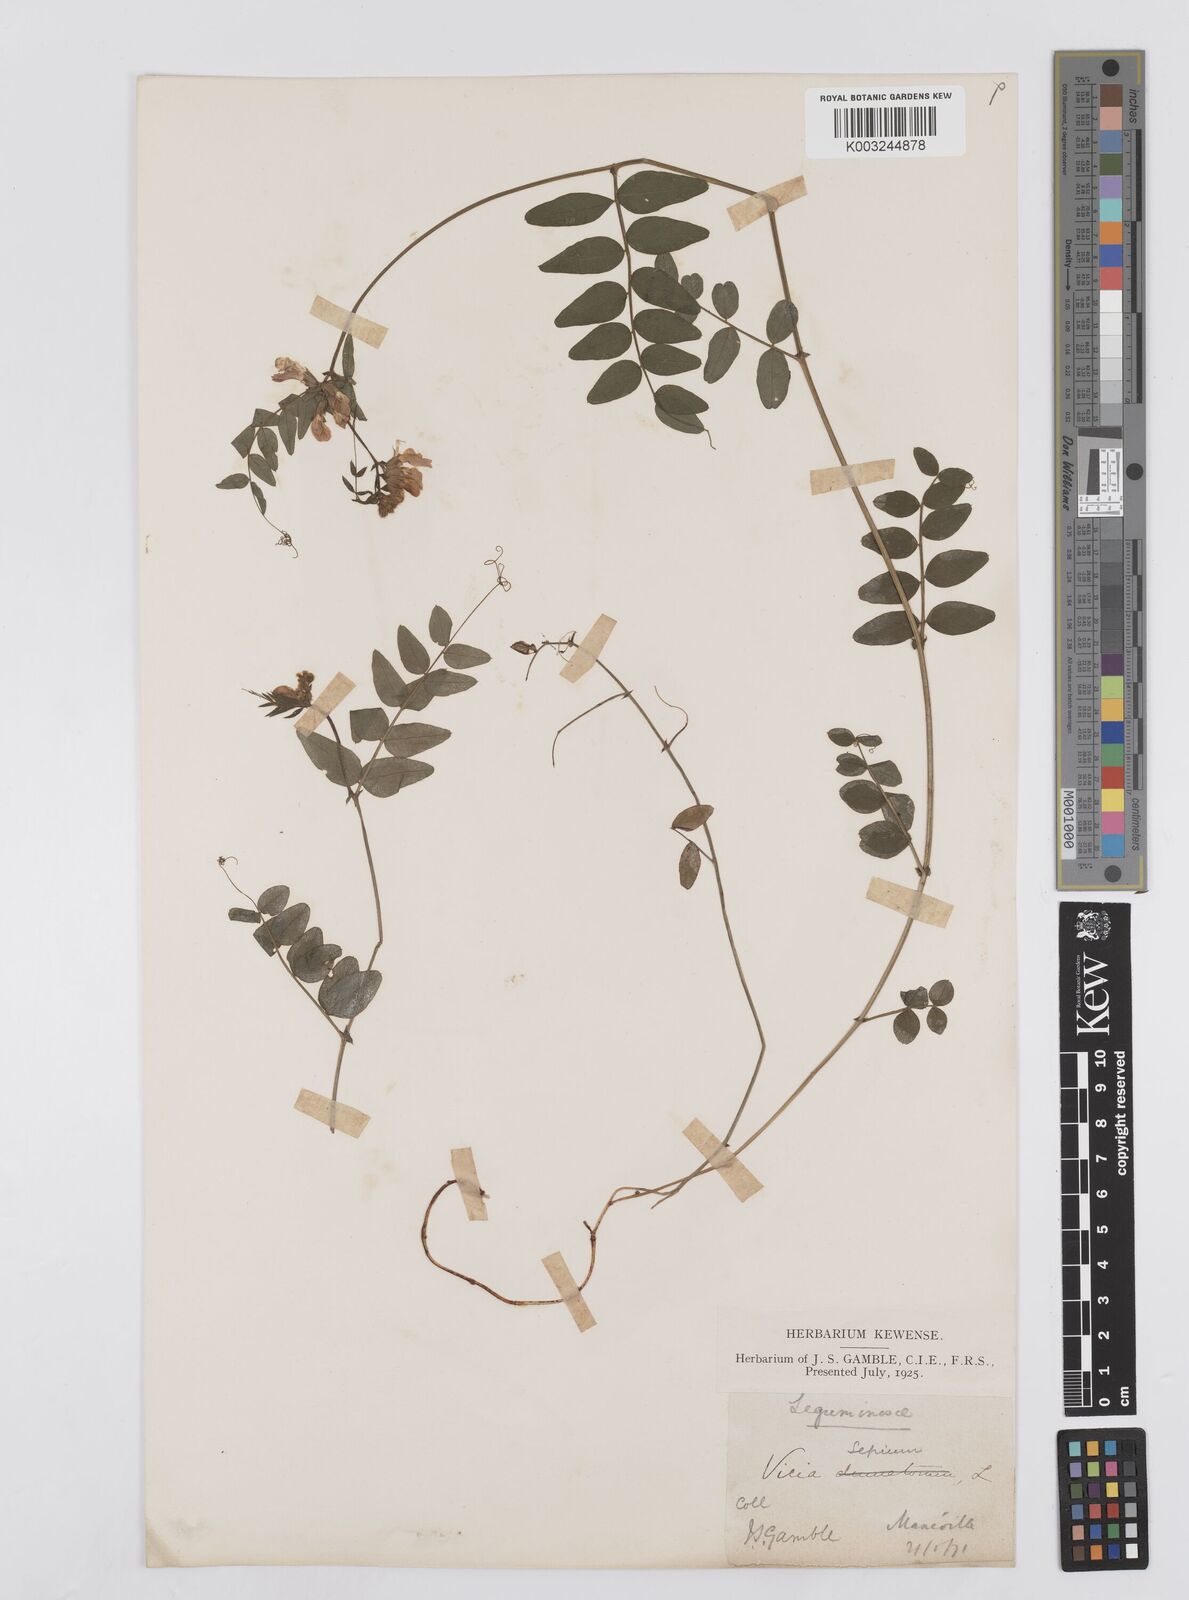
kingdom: Plantae
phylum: Tracheophyta
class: Magnoliopsida
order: Fabales
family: Fabaceae
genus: Vicia
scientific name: Vicia sepium
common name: Bush vetch
